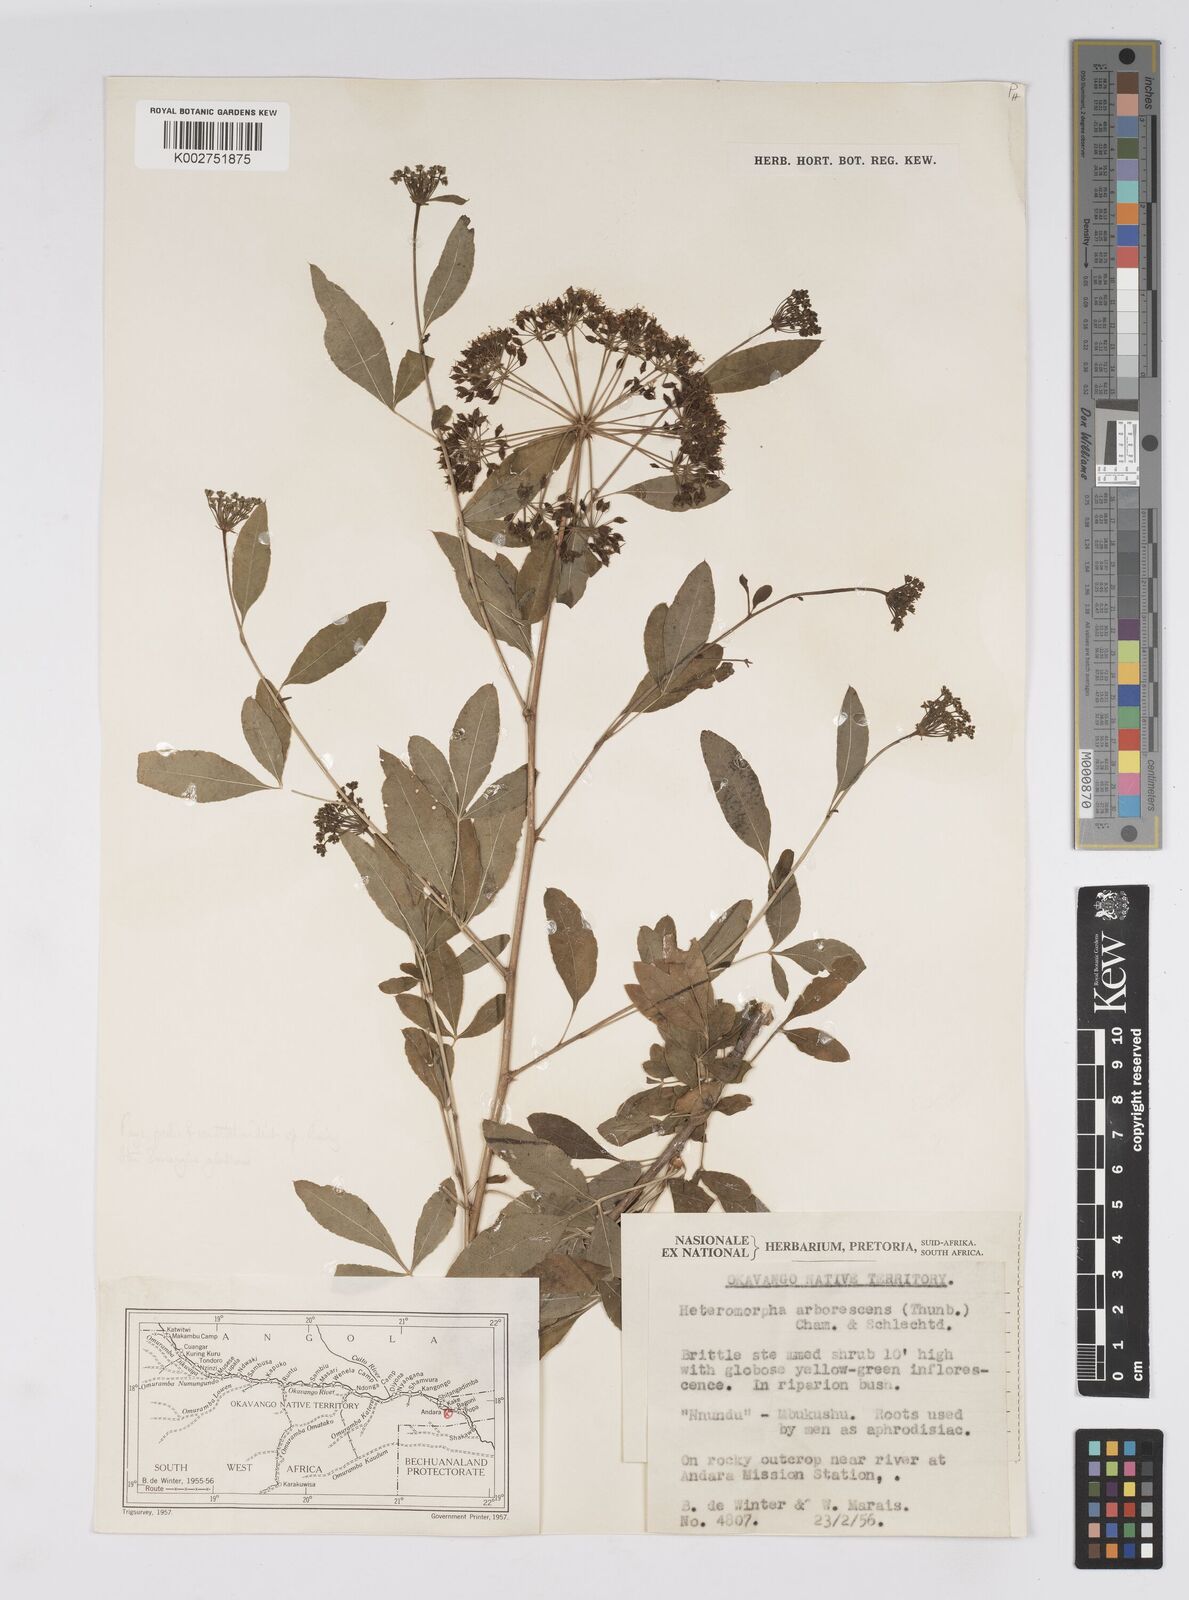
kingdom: Plantae
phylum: Tracheophyta
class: Magnoliopsida
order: Apiales
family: Apiaceae
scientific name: Apiaceae
